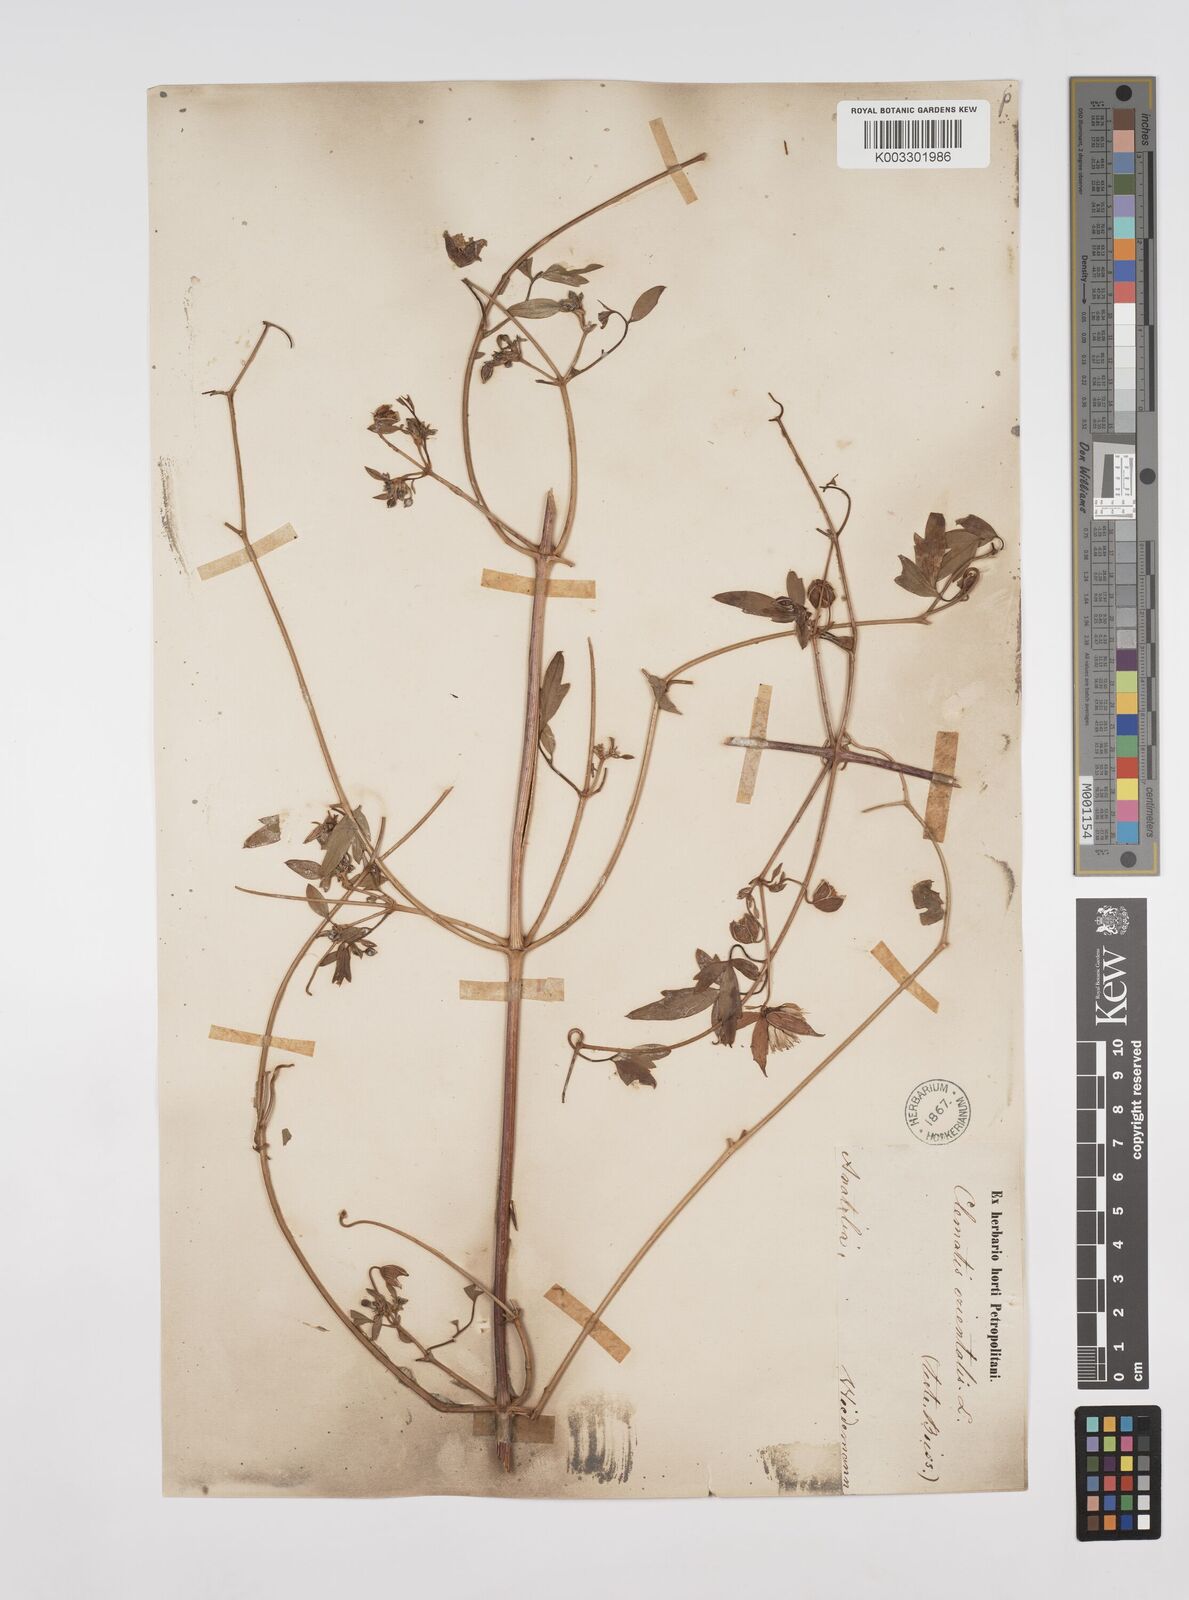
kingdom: Plantae
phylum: Tracheophyta
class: Magnoliopsida
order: Ranunculales
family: Ranunculaceae
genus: Clematis
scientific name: Clematis orientalis
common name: Oriental virgin's-bower
